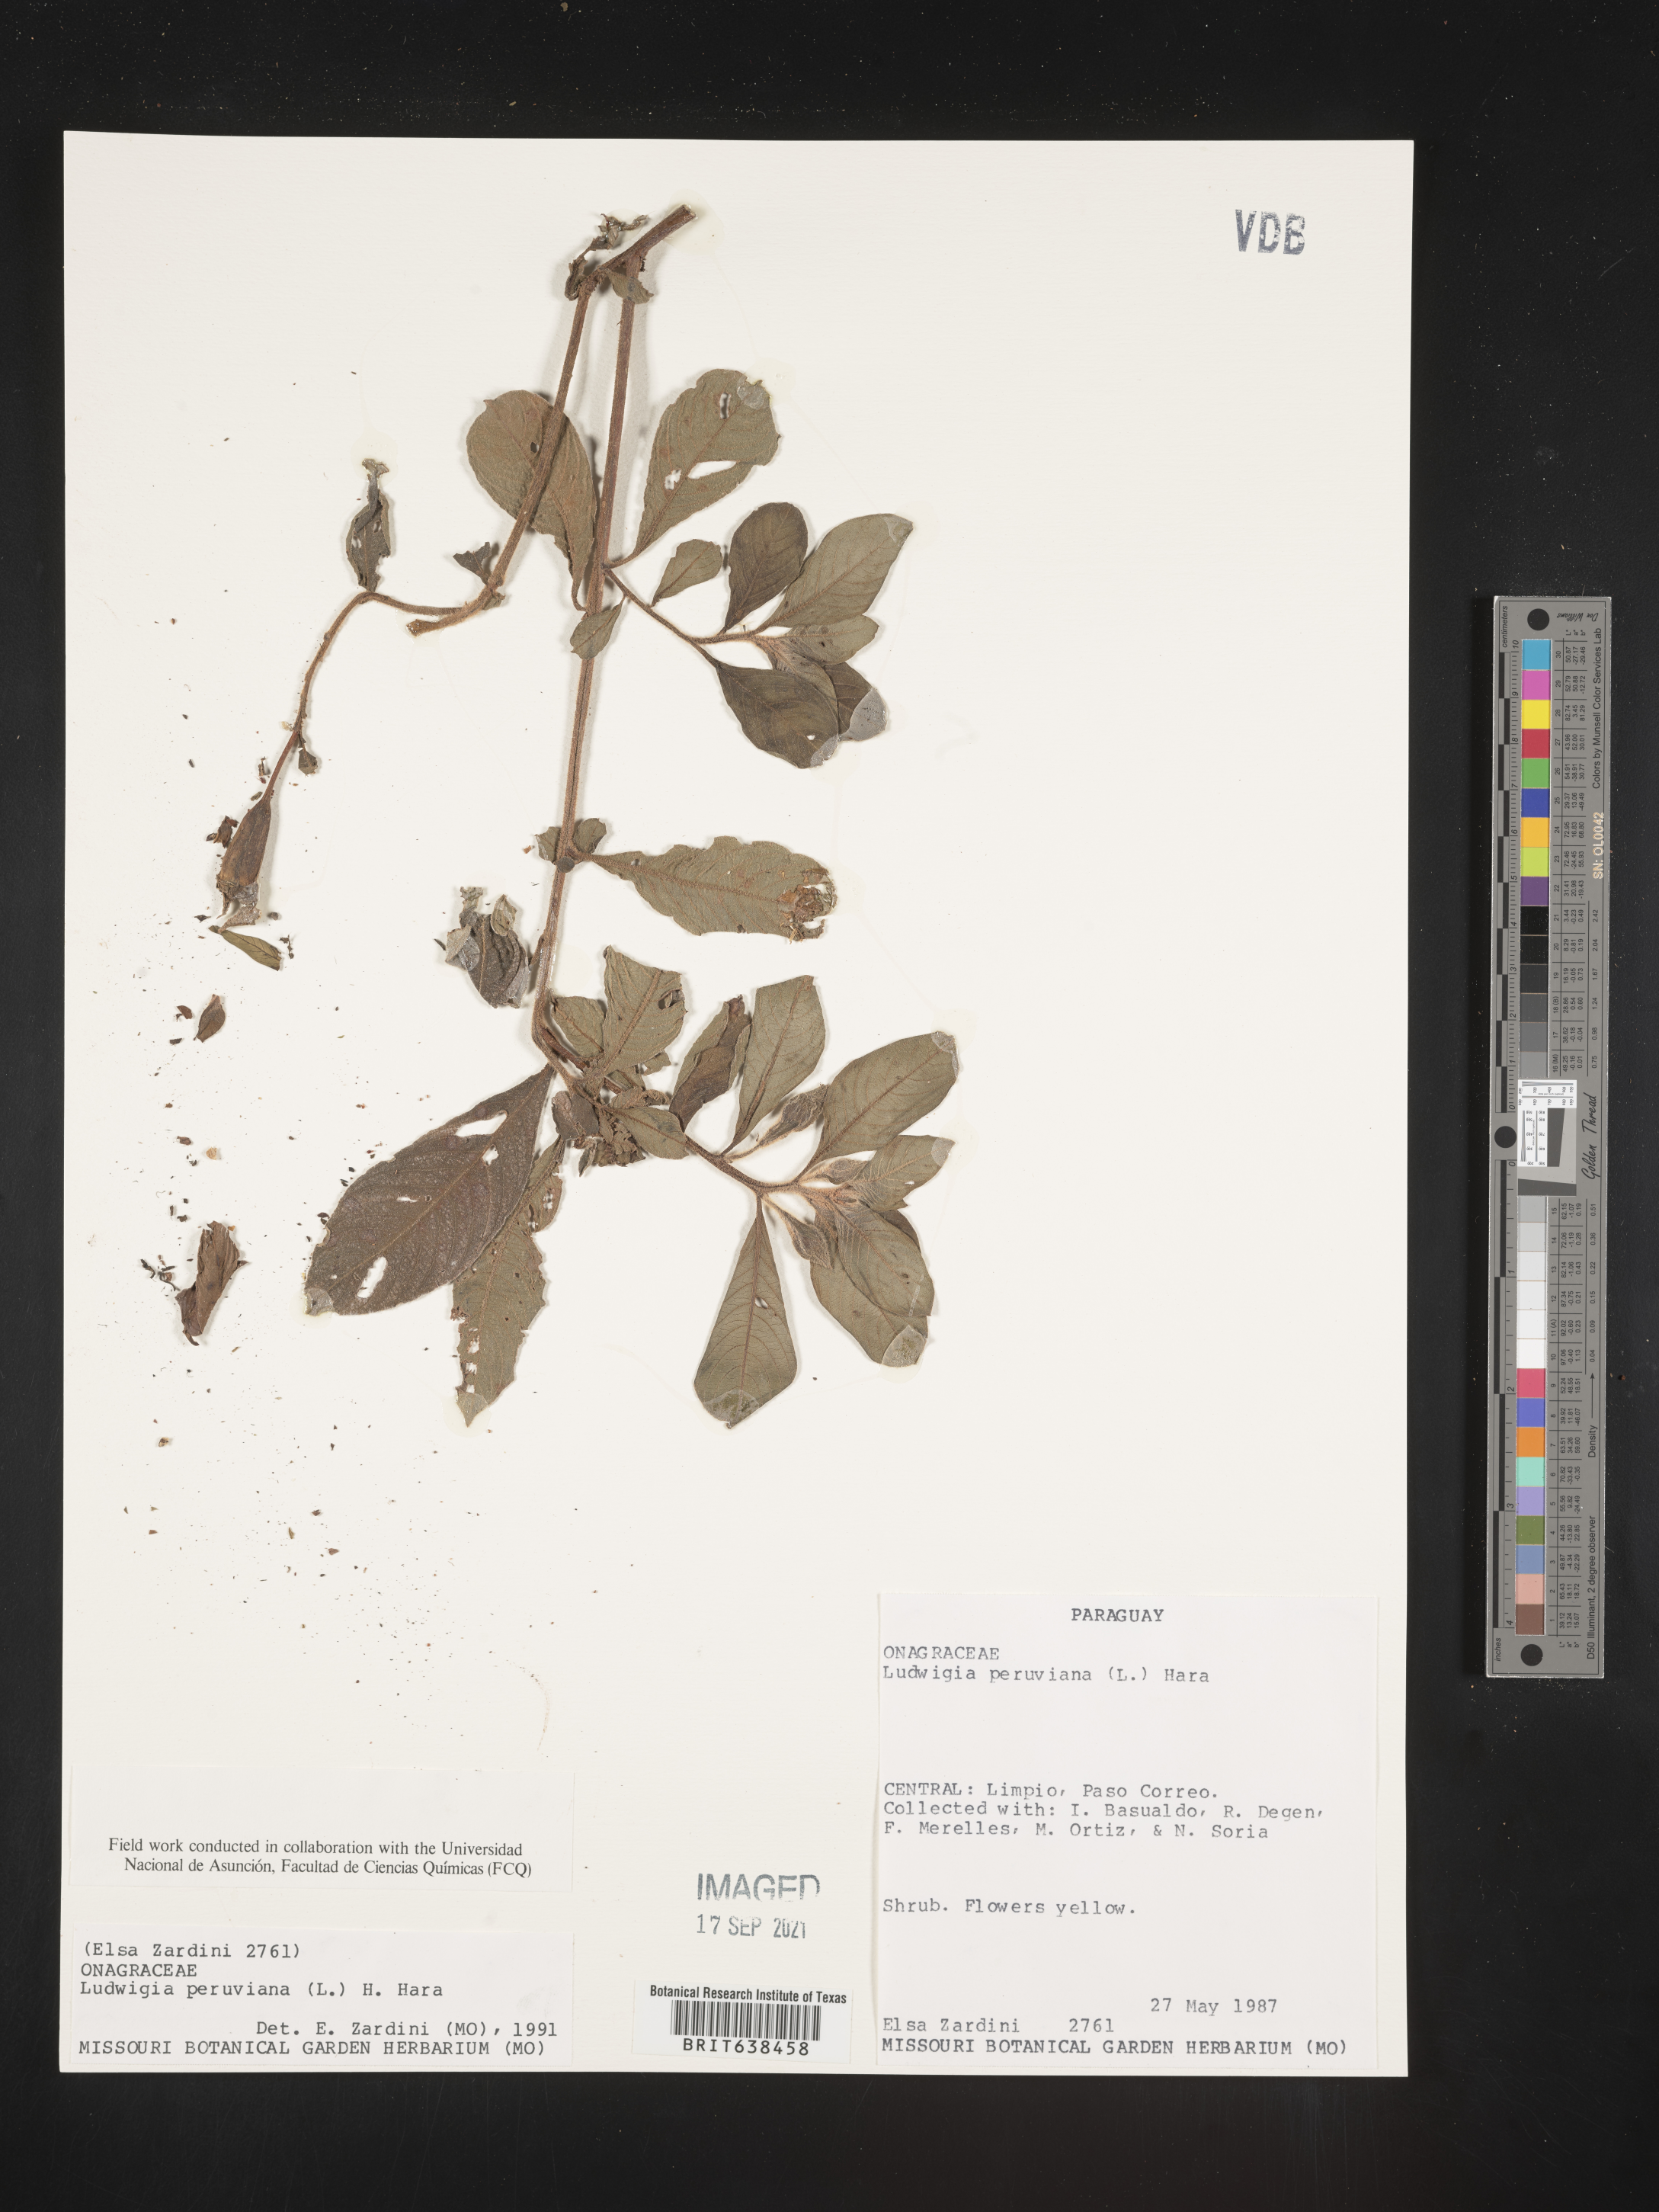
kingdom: Plantae
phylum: Tracheophyta
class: Magnoliopsida
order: Myrtales
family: Onagraceae
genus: Ludwigia
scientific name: Ludwigia
